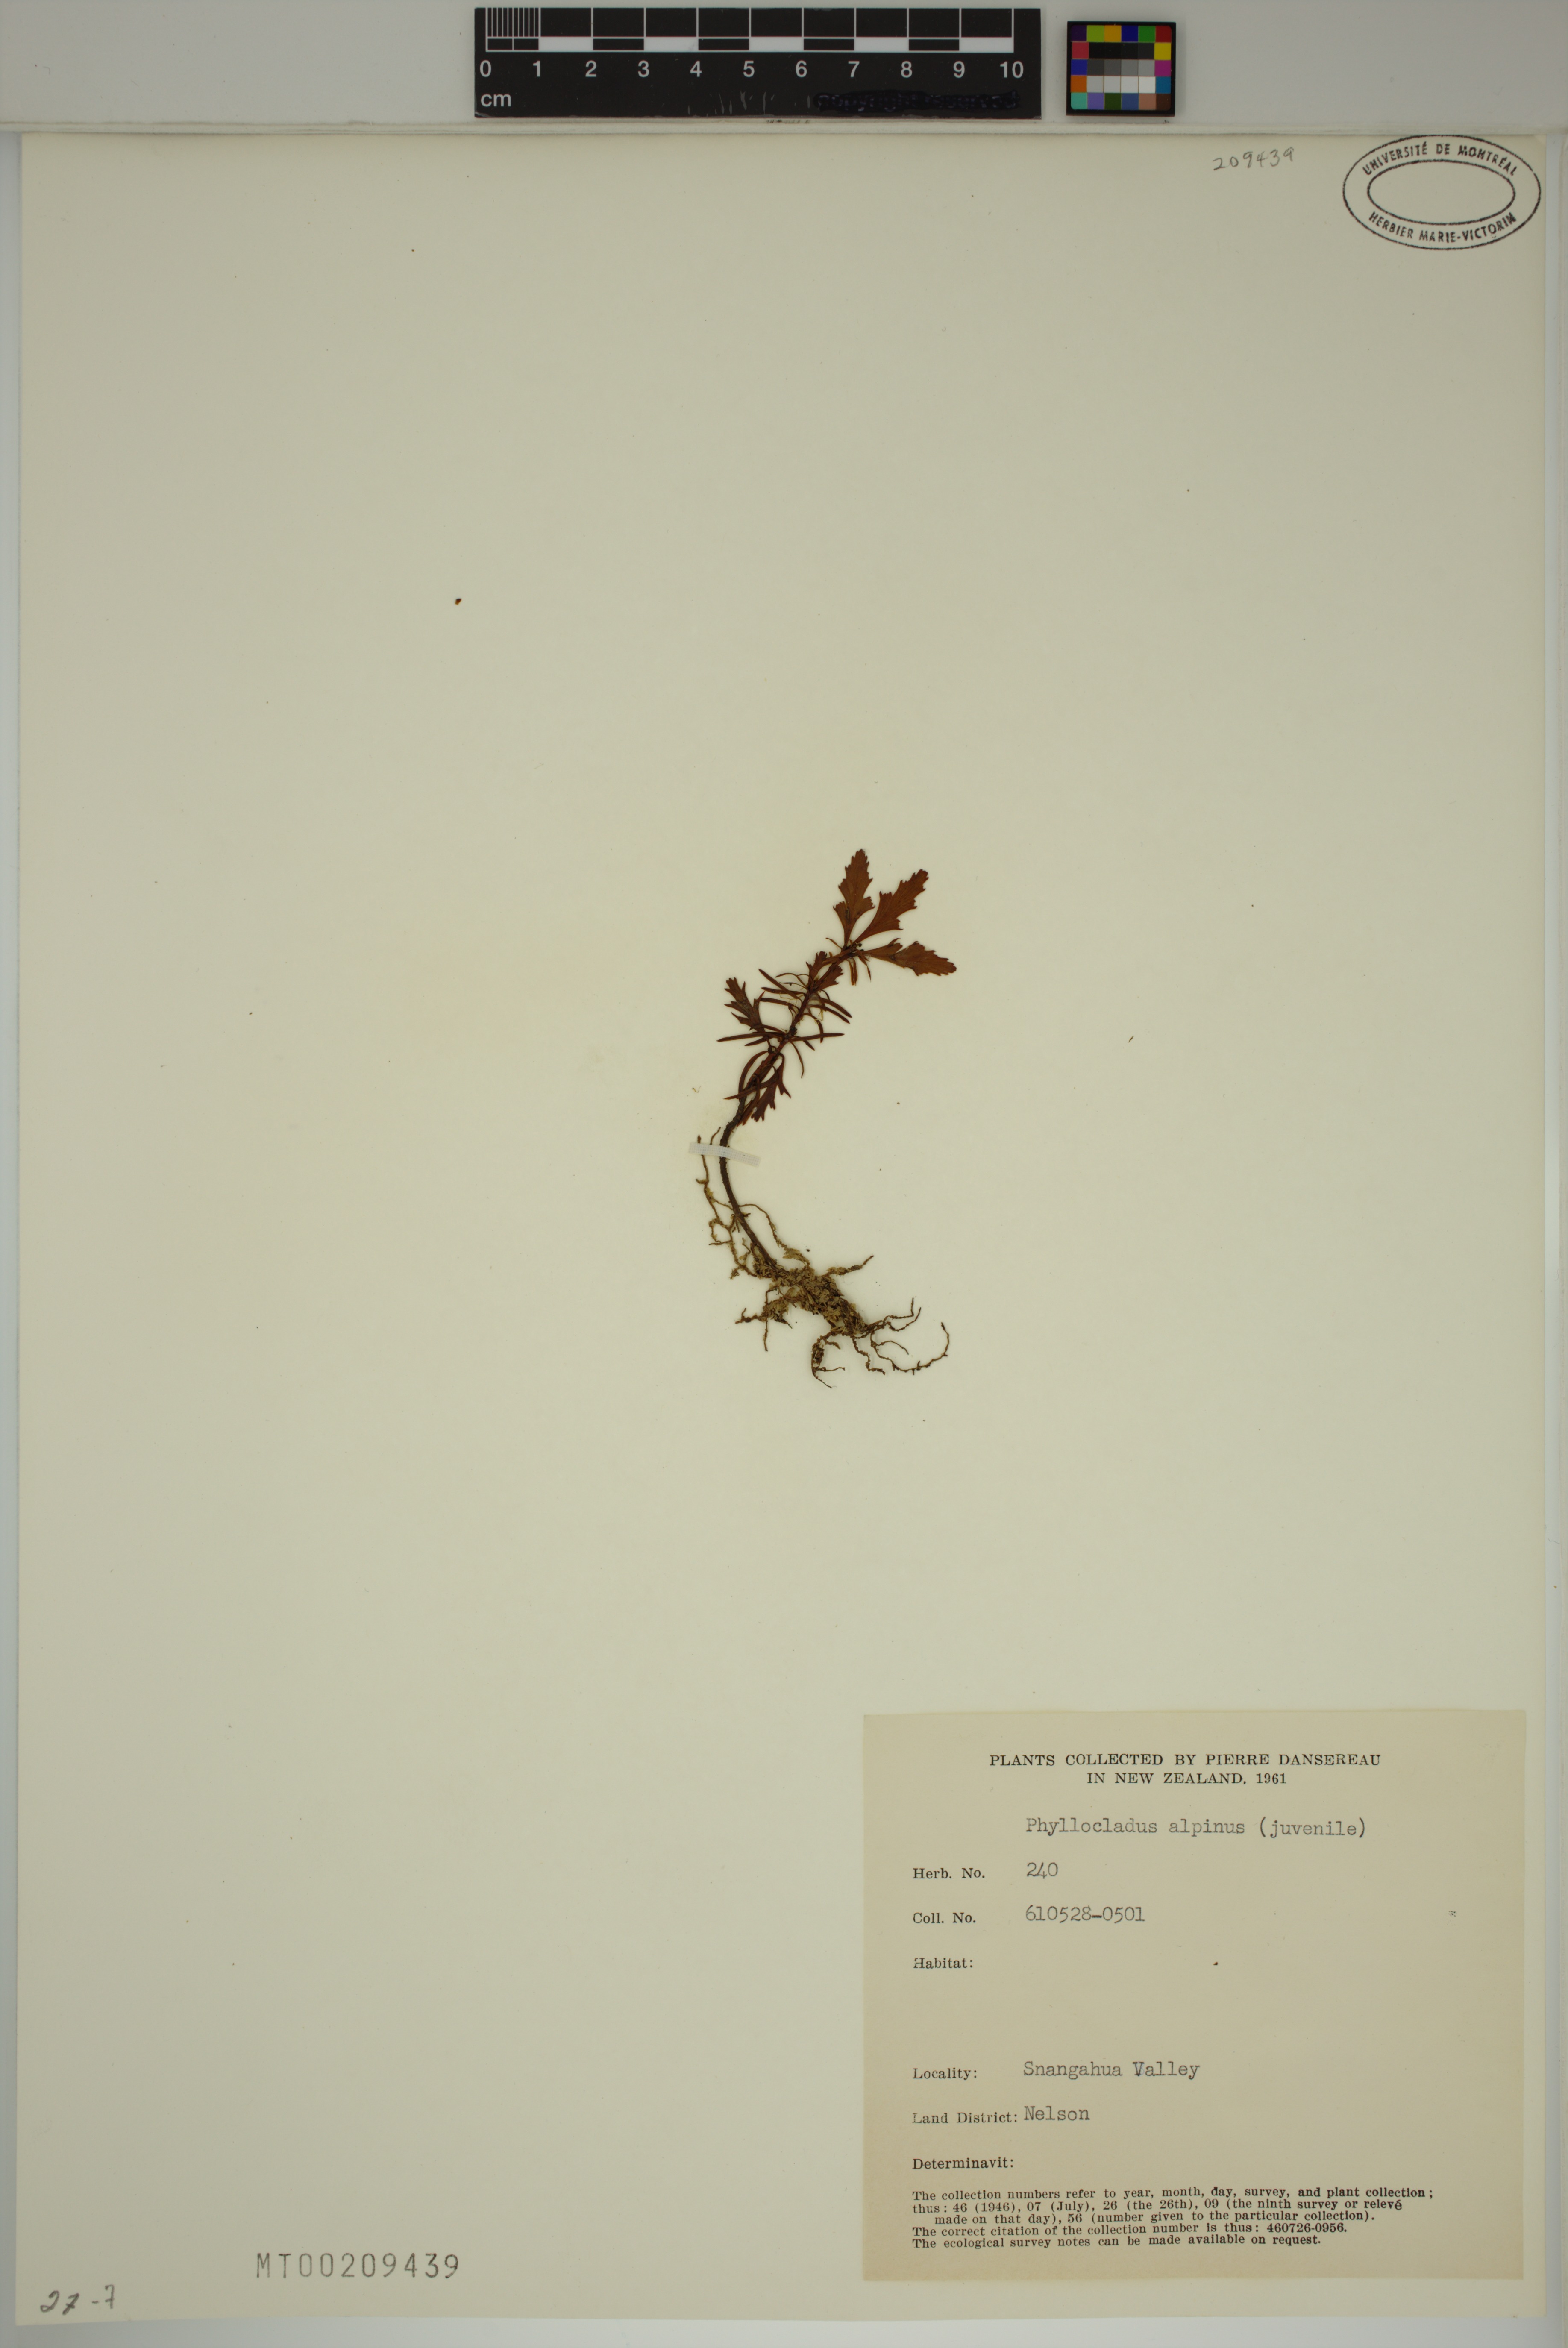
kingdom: Plantae
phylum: Tracheophyta
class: Pinopsida
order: Pinales
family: Phyllocladaceae
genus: Phyllocladus
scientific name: Phyllocladus trichomanoides
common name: Celery pine
